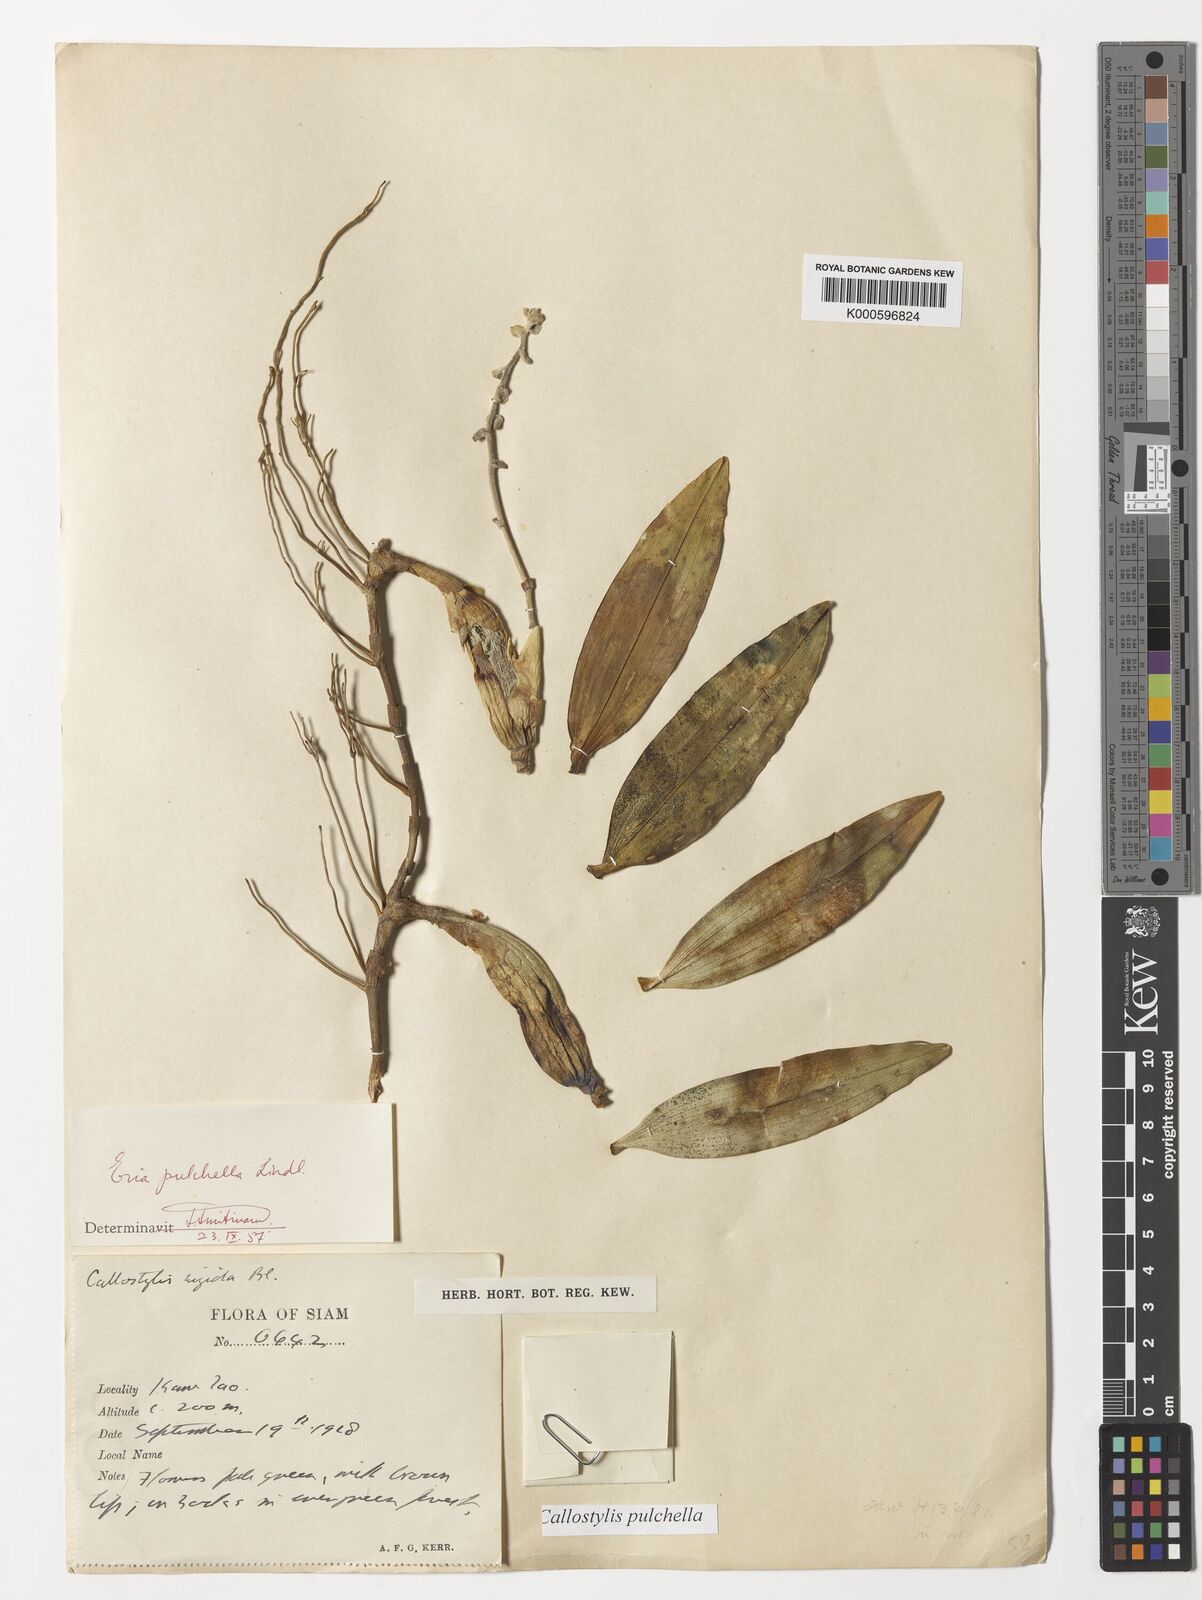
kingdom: Plantae
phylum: Tracheophyta
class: Liliopsida
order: Asparagales
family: Orchidaceae
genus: Callostylis
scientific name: Callostylis pulchella
